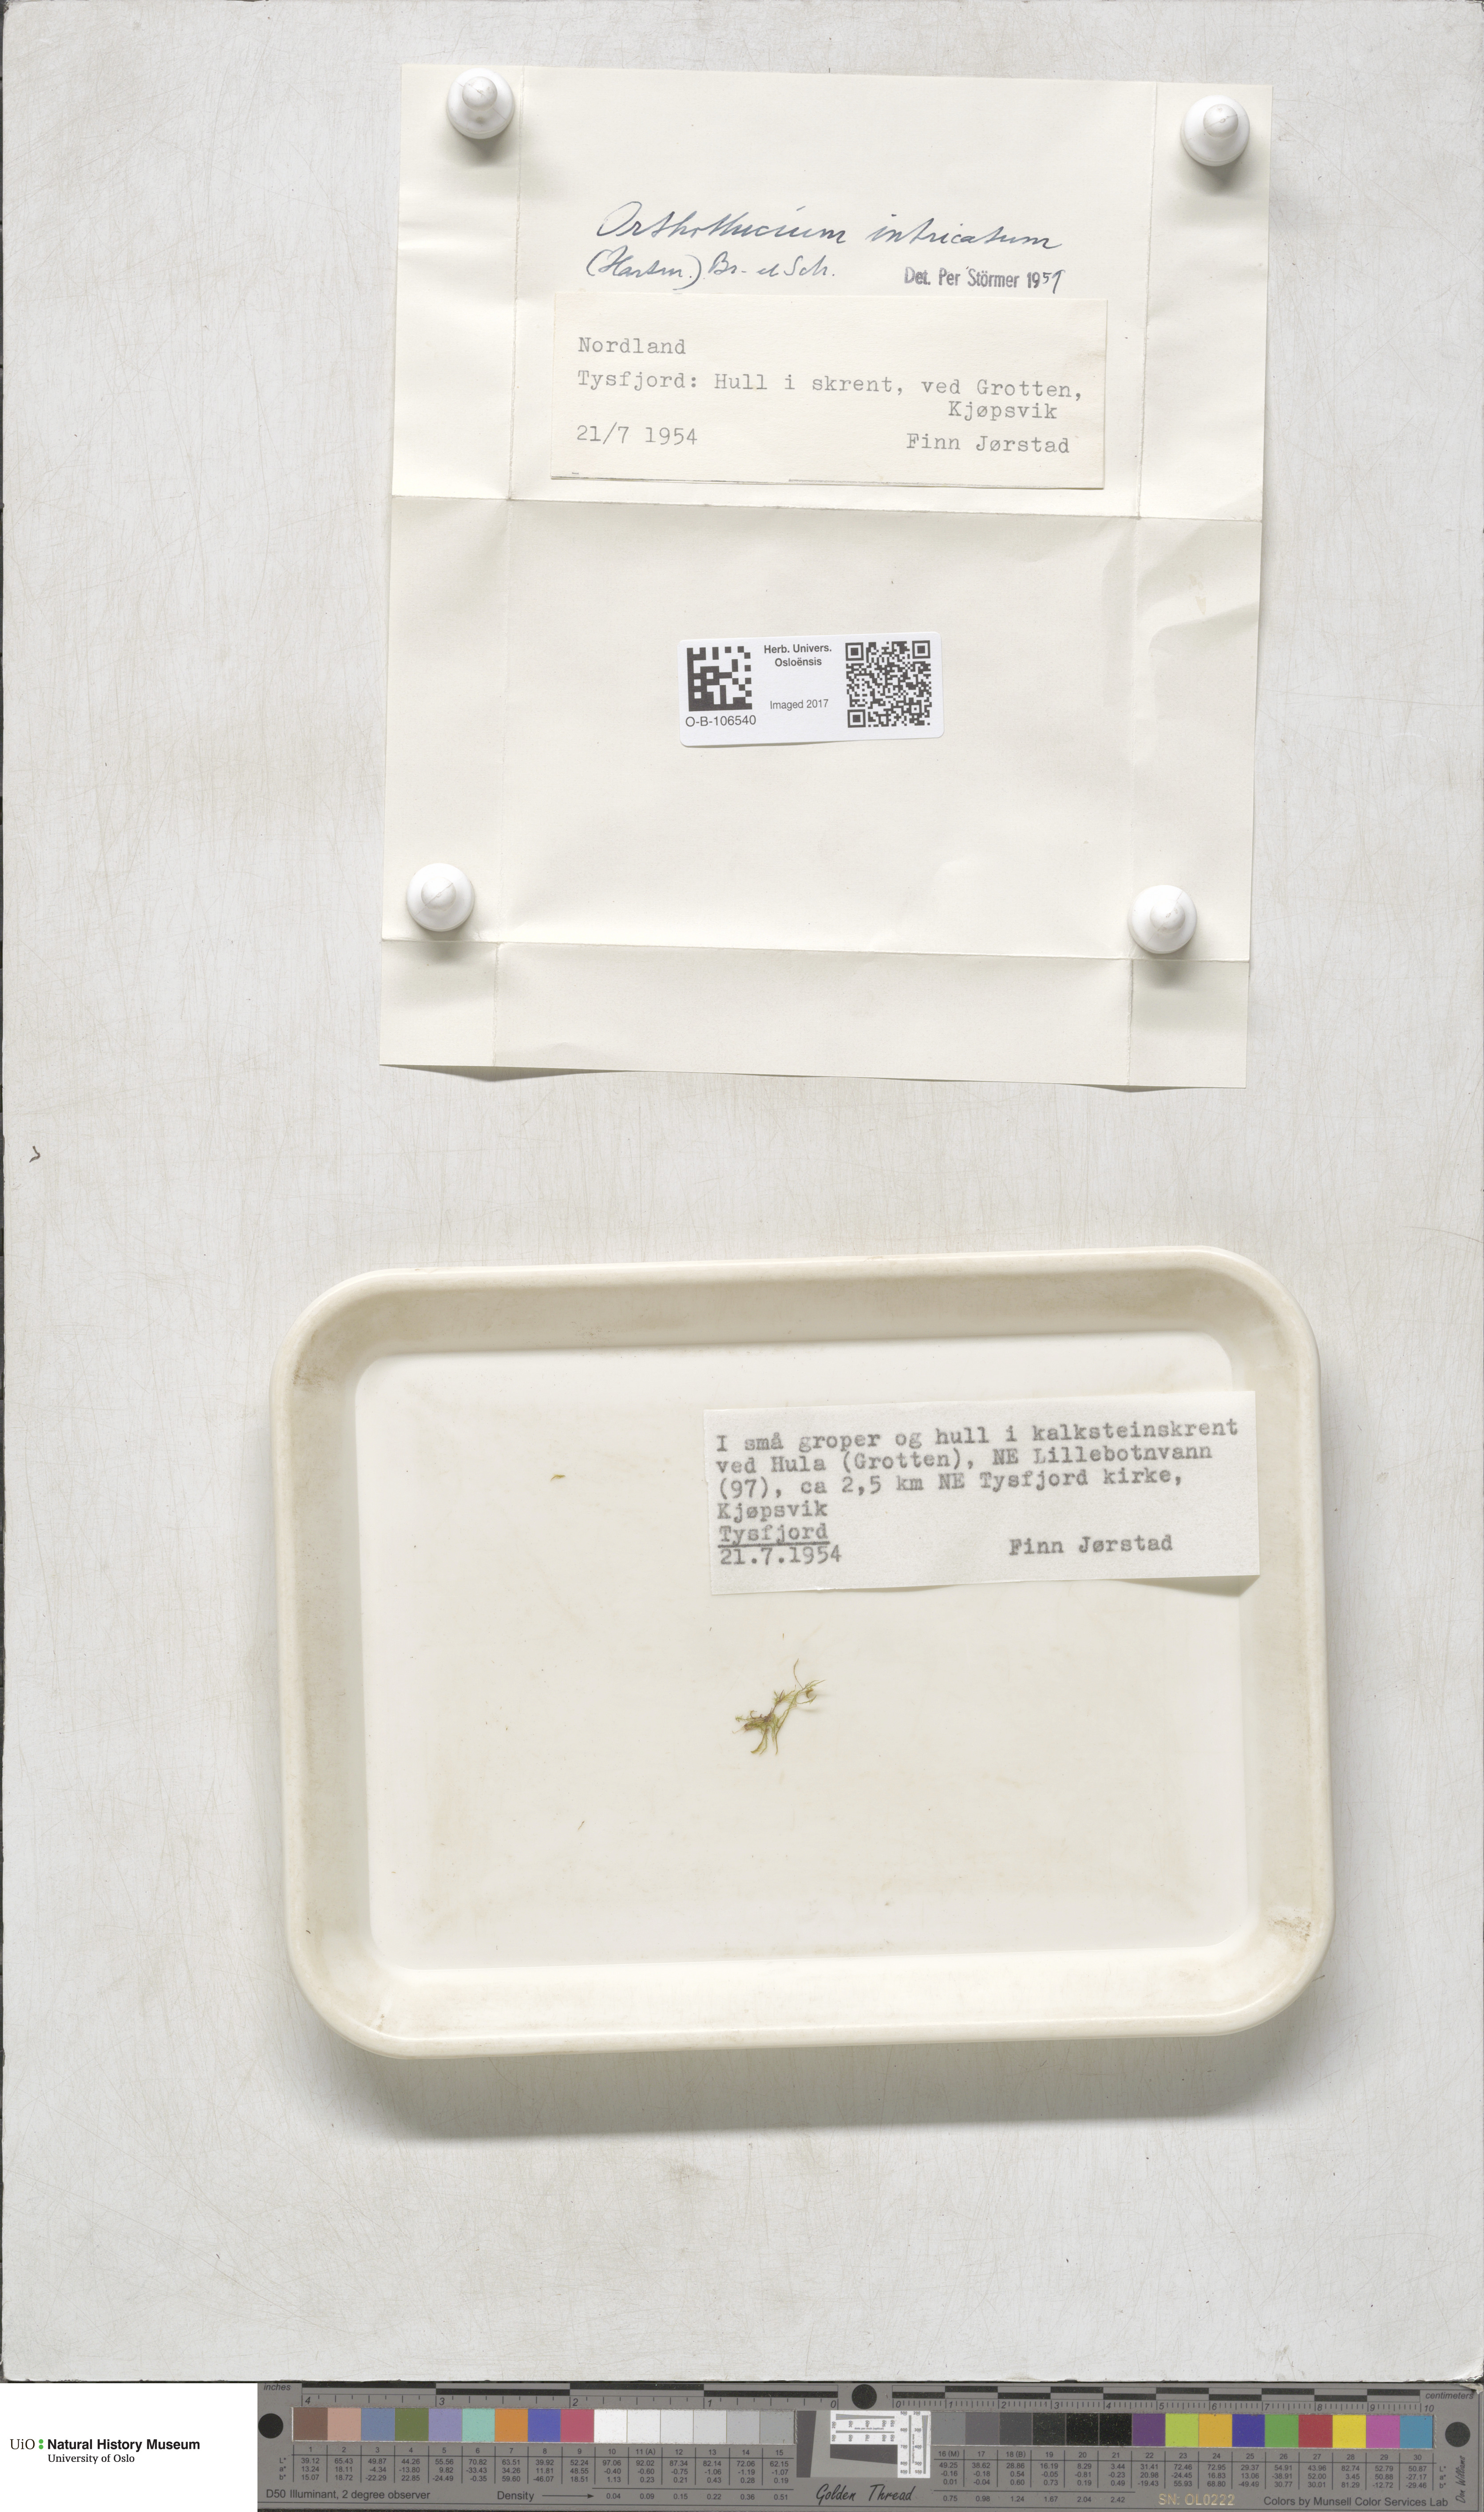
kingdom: Plantae
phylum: Bryophyta
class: Bryopsida
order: Hypnales
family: Plagiotheciaceae
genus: Orthothecium
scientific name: Orthothecium intricatum
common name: Fine-leaved erect-capsule moss
